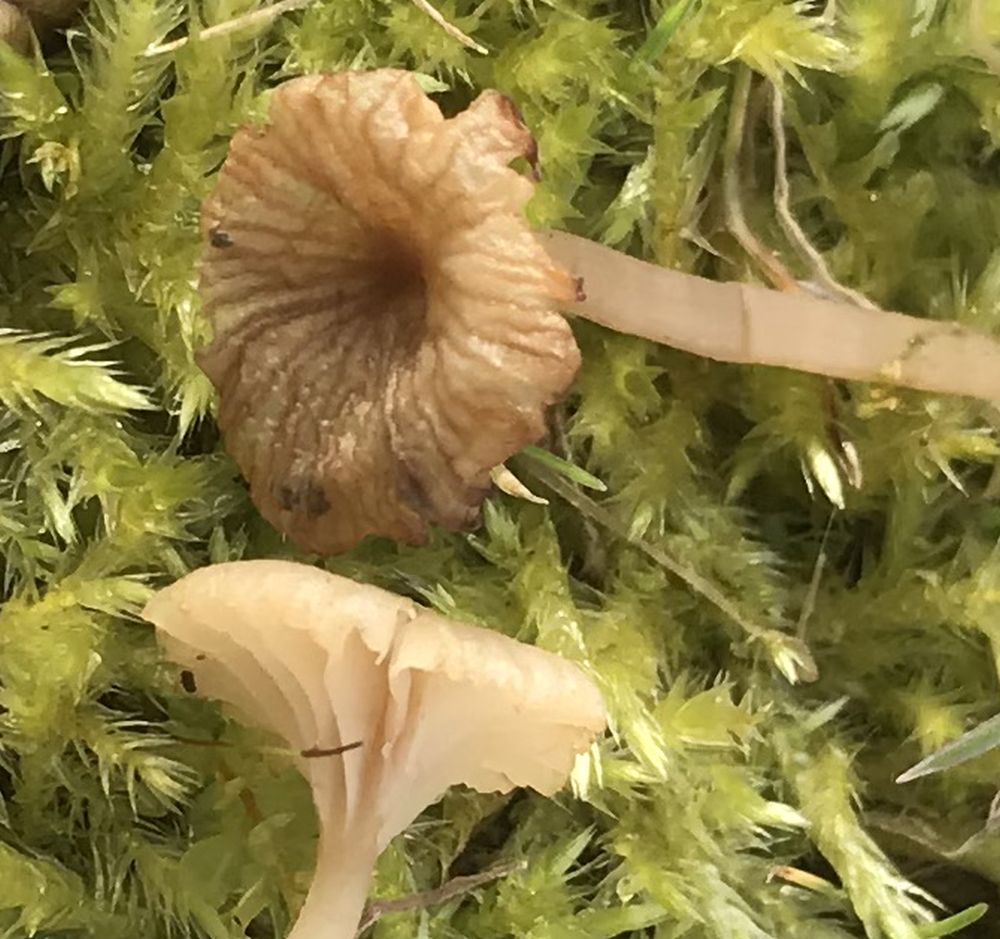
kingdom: Fungi
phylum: Basidiomycota
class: Agaricomycetes
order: Agaricales
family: Hygrophoraceae
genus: Lichenomphalia
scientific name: Lichenomphalia umbellifera
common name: tørve-lavhat
